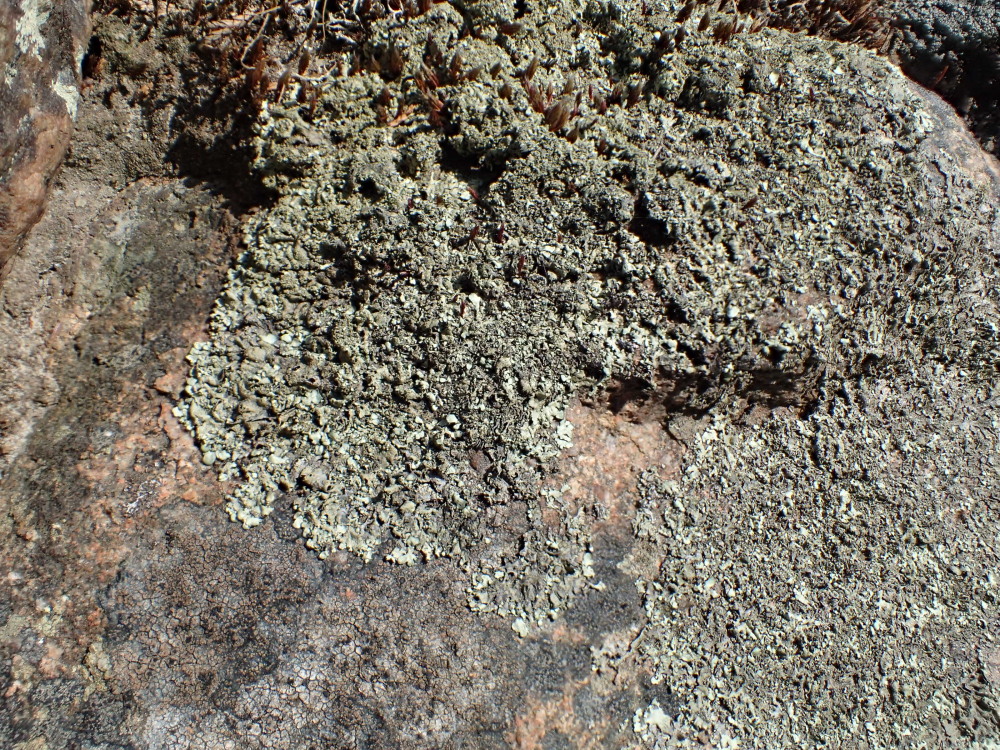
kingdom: Fungi
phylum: Ascomycota
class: Lecanoromycetes
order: Lecanorales
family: Parmeliaceae
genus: Xanthoparmelia
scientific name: Xanthoparmelia conspersa
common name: messing-skållav
